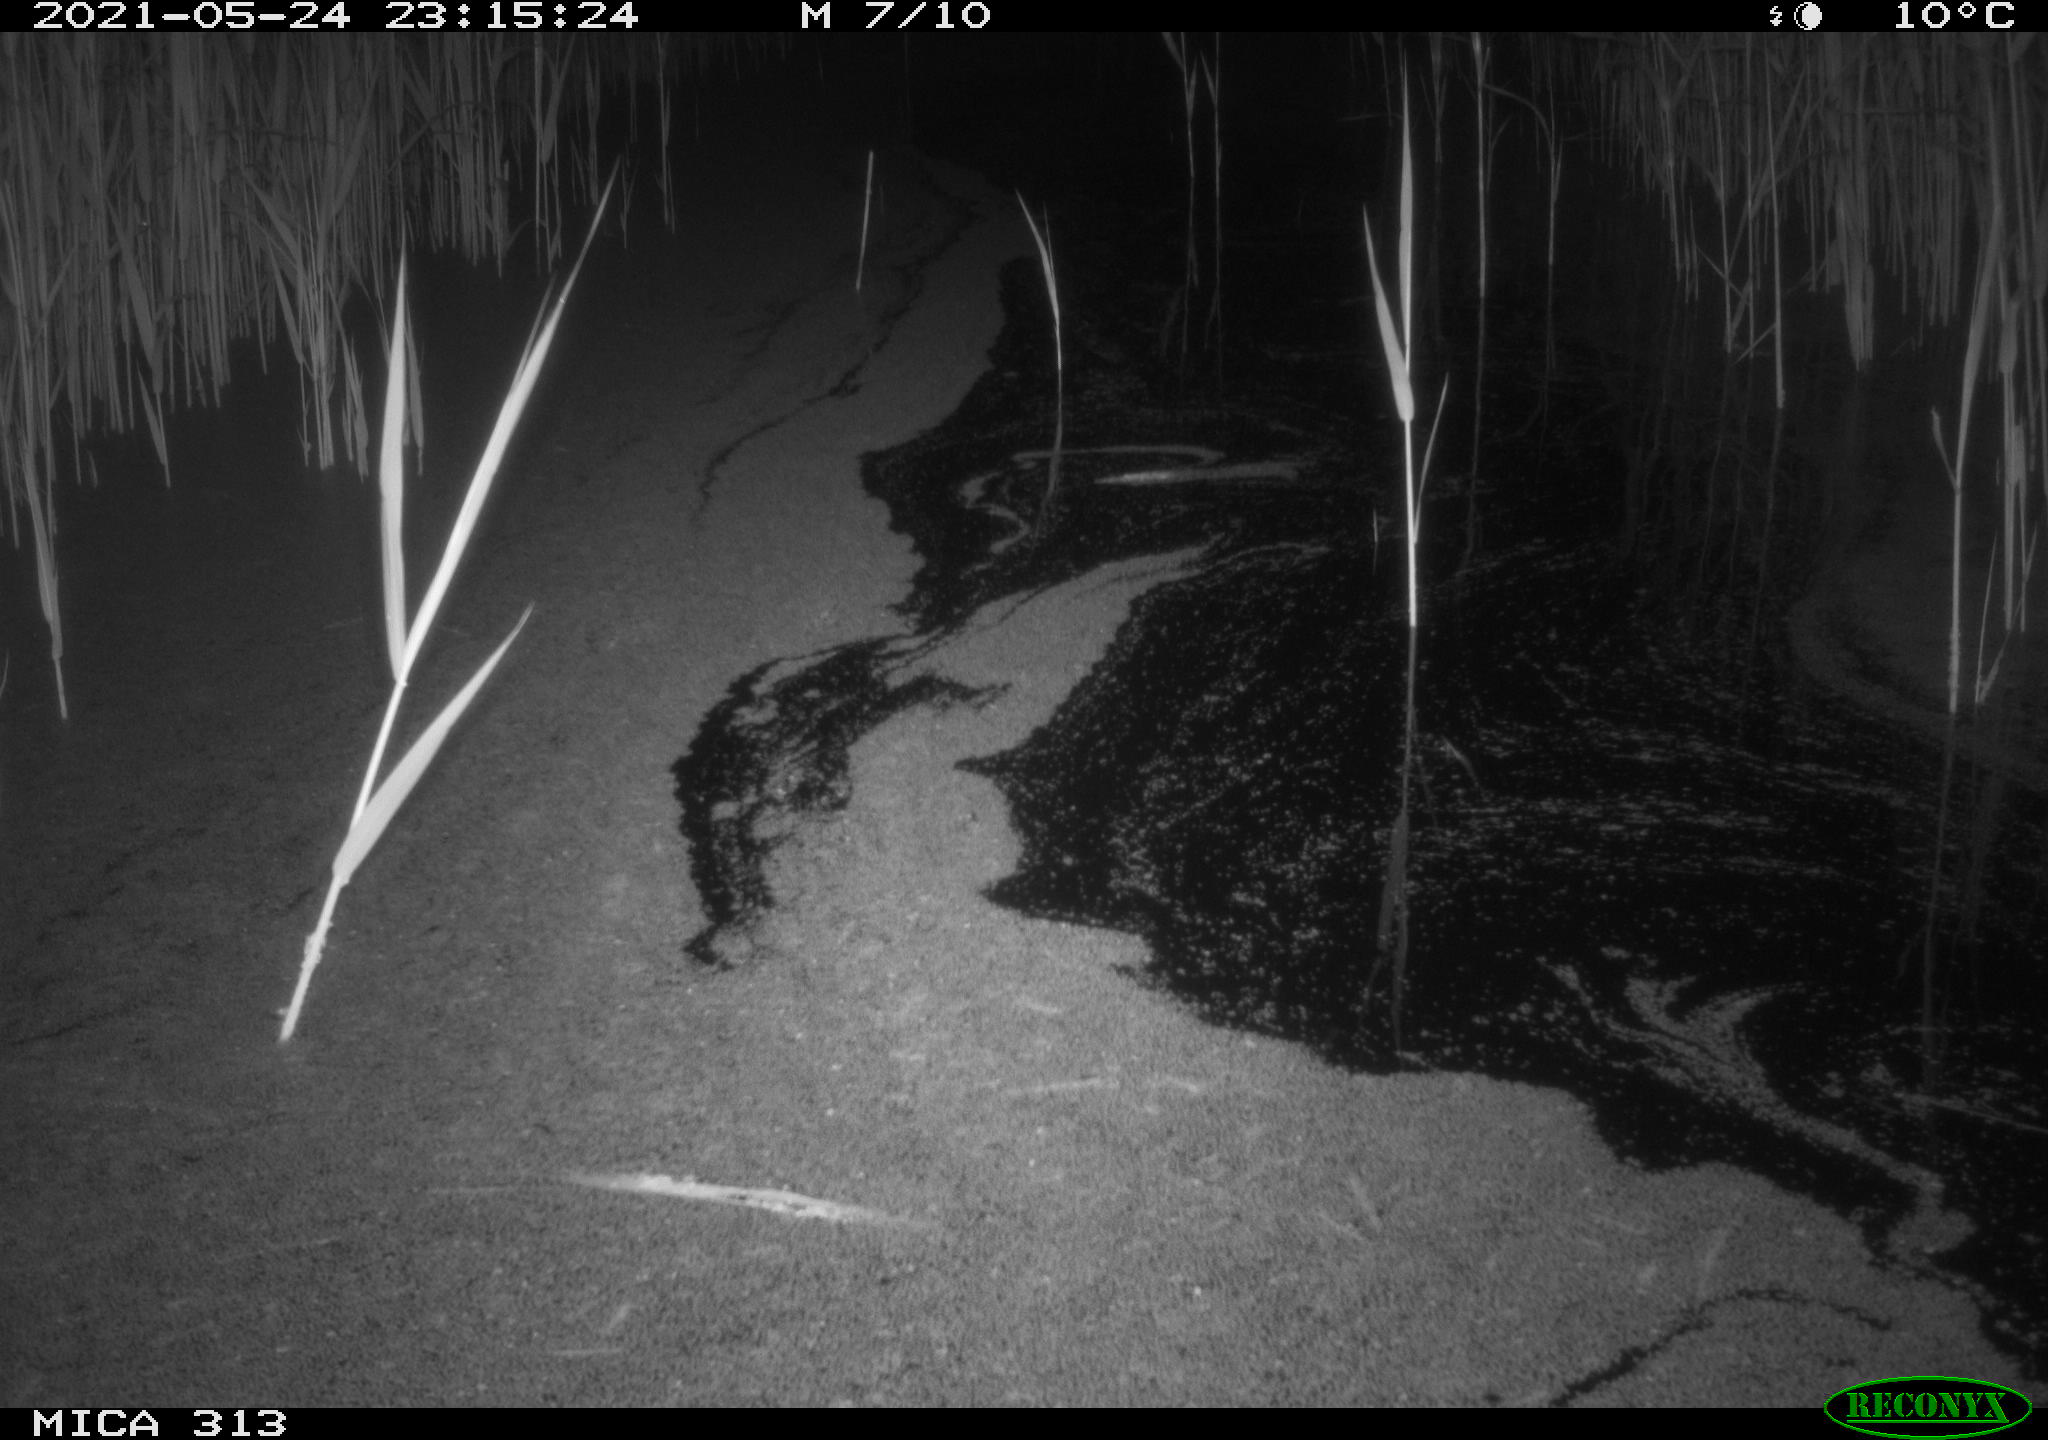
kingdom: Animalia
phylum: Chordata
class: Aves
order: Anseriformes
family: Anatidae
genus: Anas
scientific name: Anas platyrhynchos
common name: Mallard
